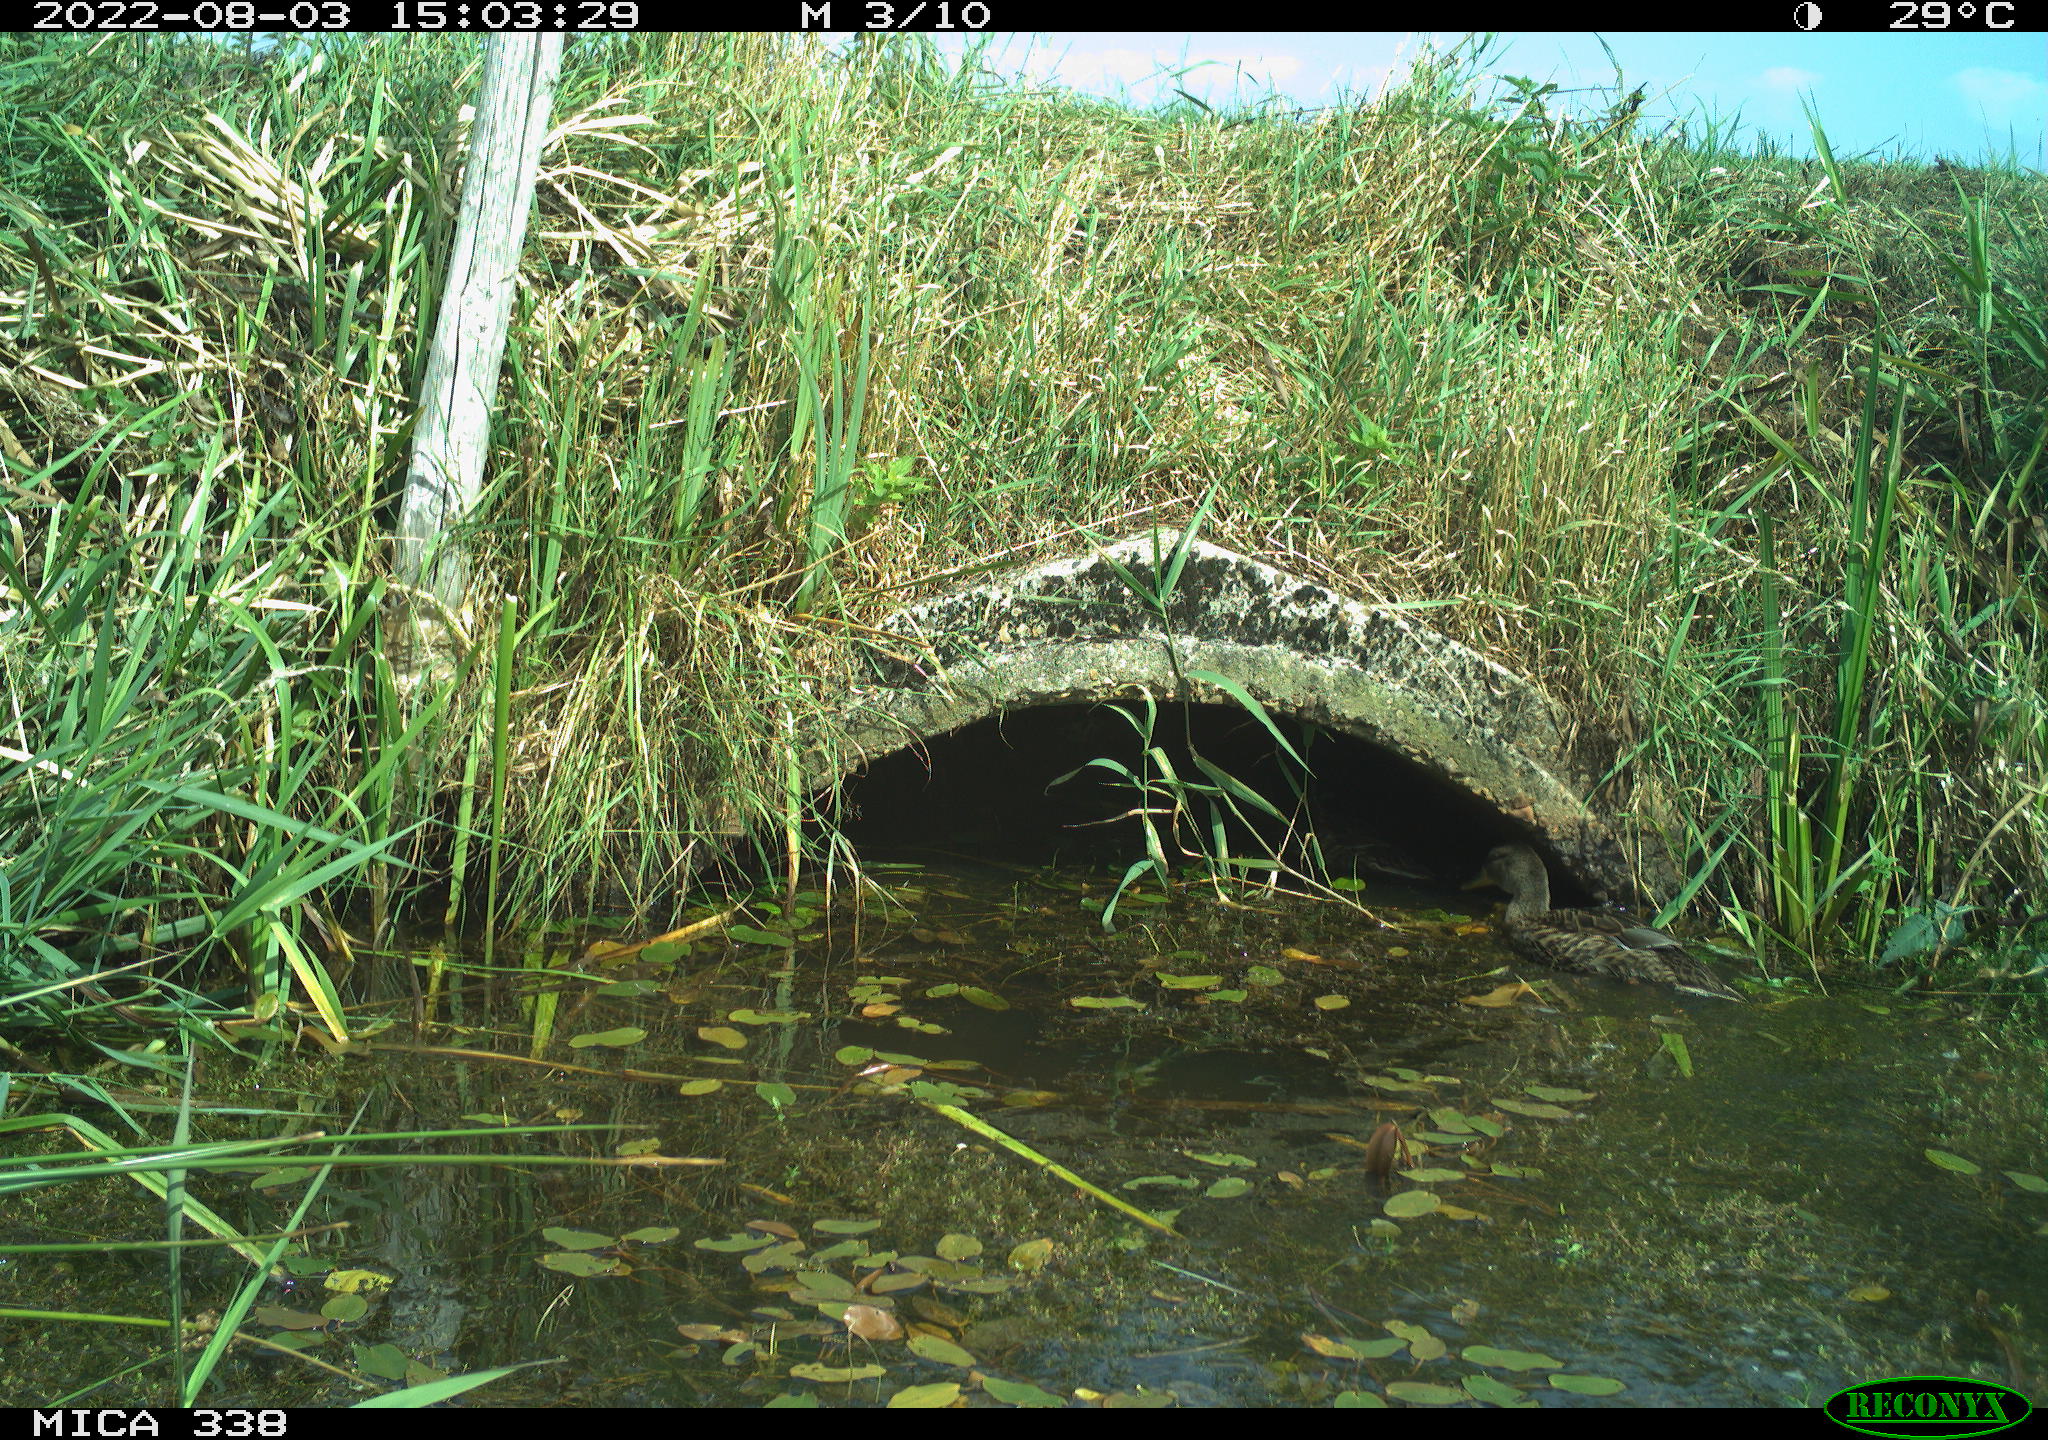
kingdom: Animalia
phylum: Chordata
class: Aves
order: Anseriformes
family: Anatidae
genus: Anas
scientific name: Anas platyrhynchos
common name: Mallard
